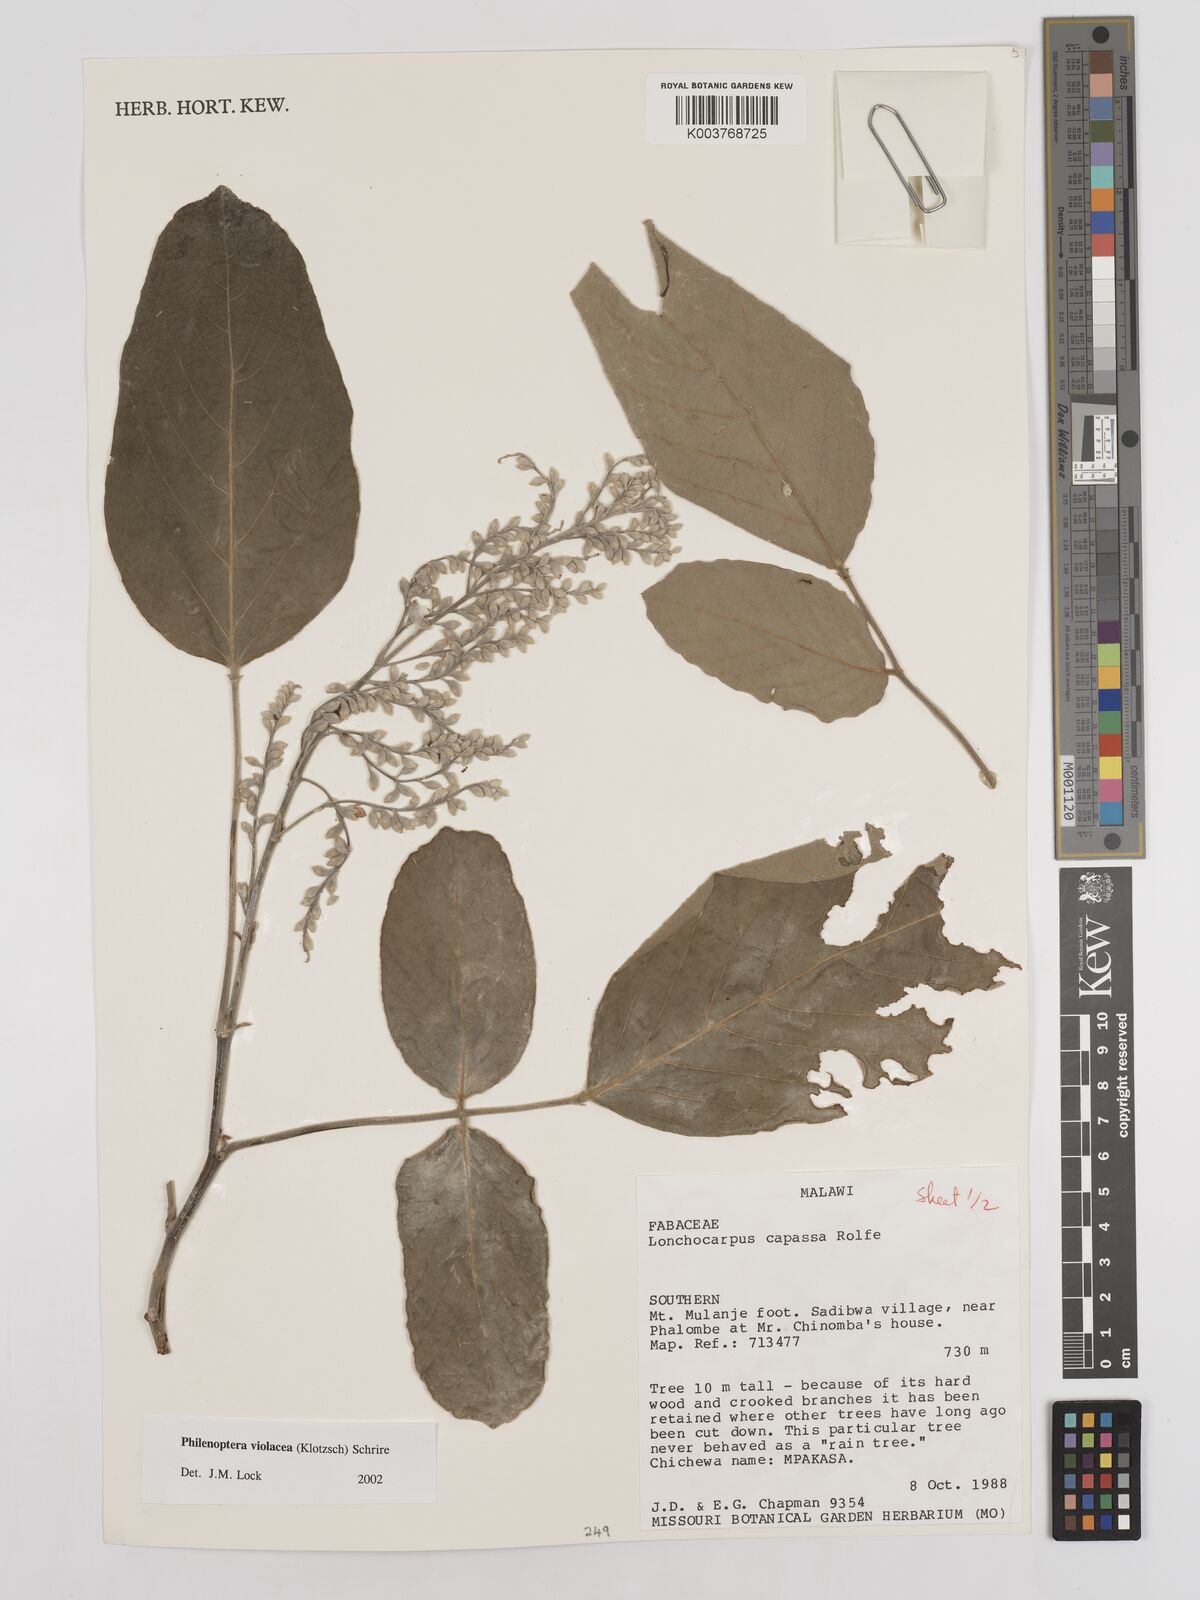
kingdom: Plantae
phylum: Tracheophyta
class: Magnoliopsida
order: Fabales
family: Fabaceae
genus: Philenoptera
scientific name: Philenoptera violacea
